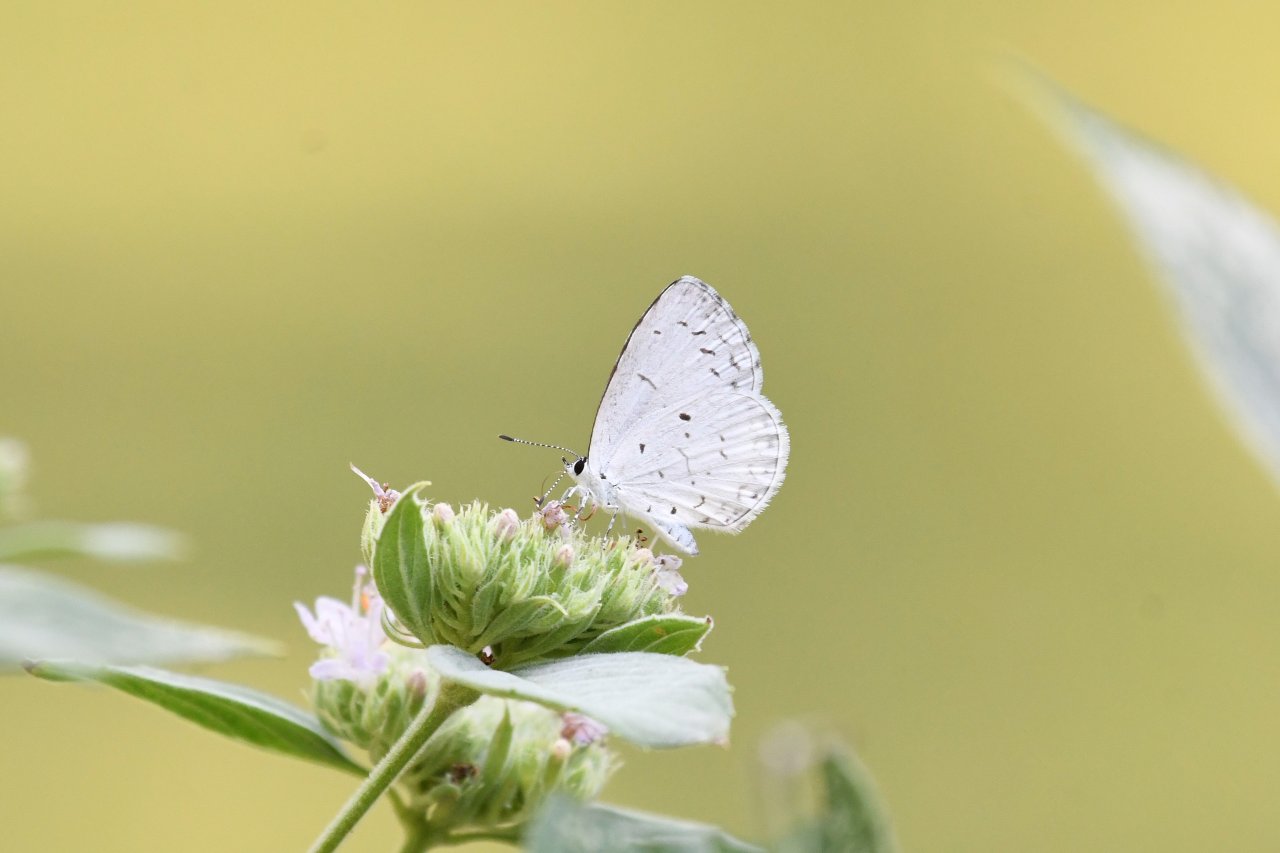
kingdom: Animalia
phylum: Arthropoda
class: Insecta
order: Lepidoptera
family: Lycaenidae
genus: Cyaniris
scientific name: Cyaniris neglecta
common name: Summer Azure
